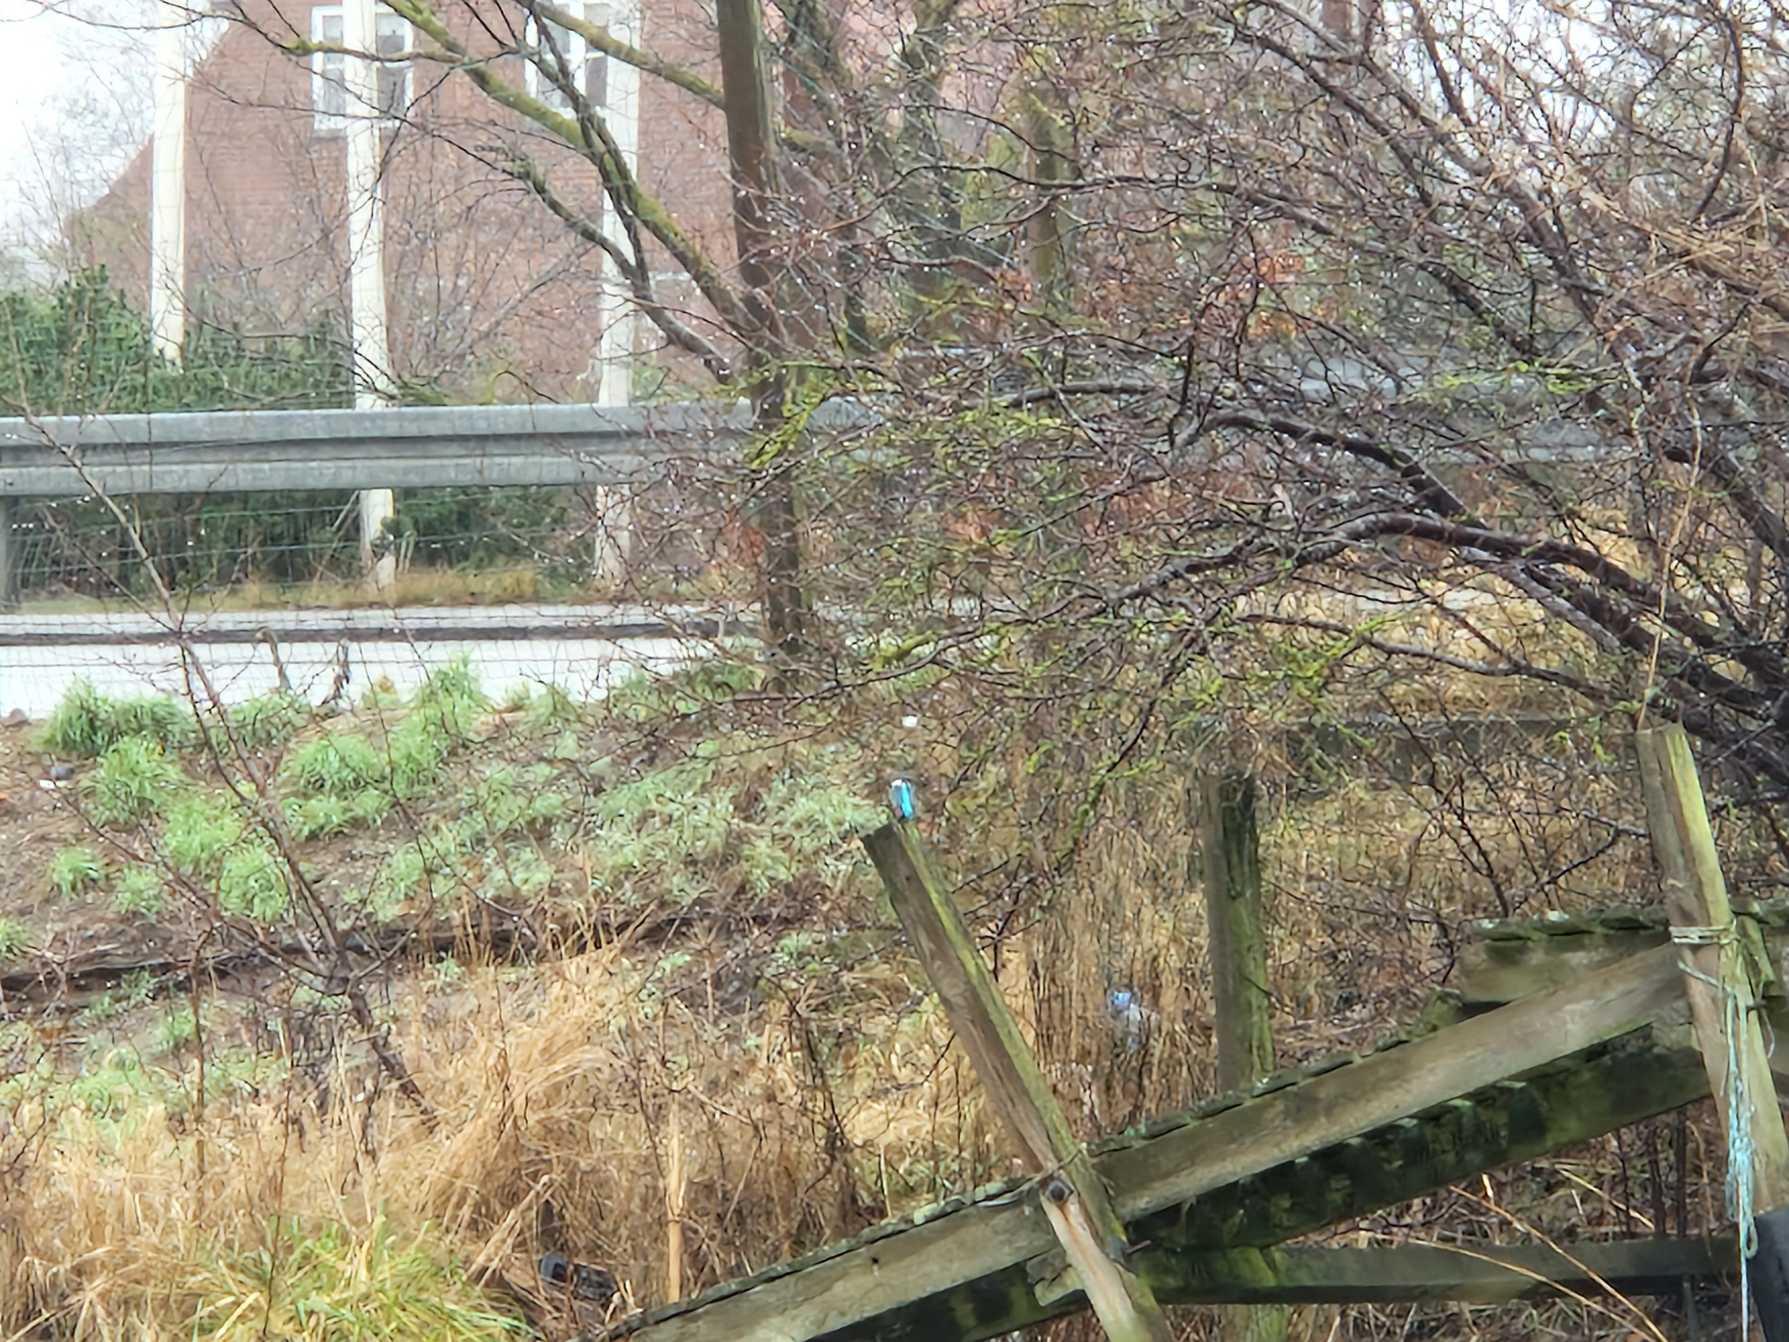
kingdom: Animalia
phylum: Chordata
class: Aves
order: Coraciiformes
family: Alcedinidae
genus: Alcedo
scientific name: Alcedo atthis
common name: Isfugl
